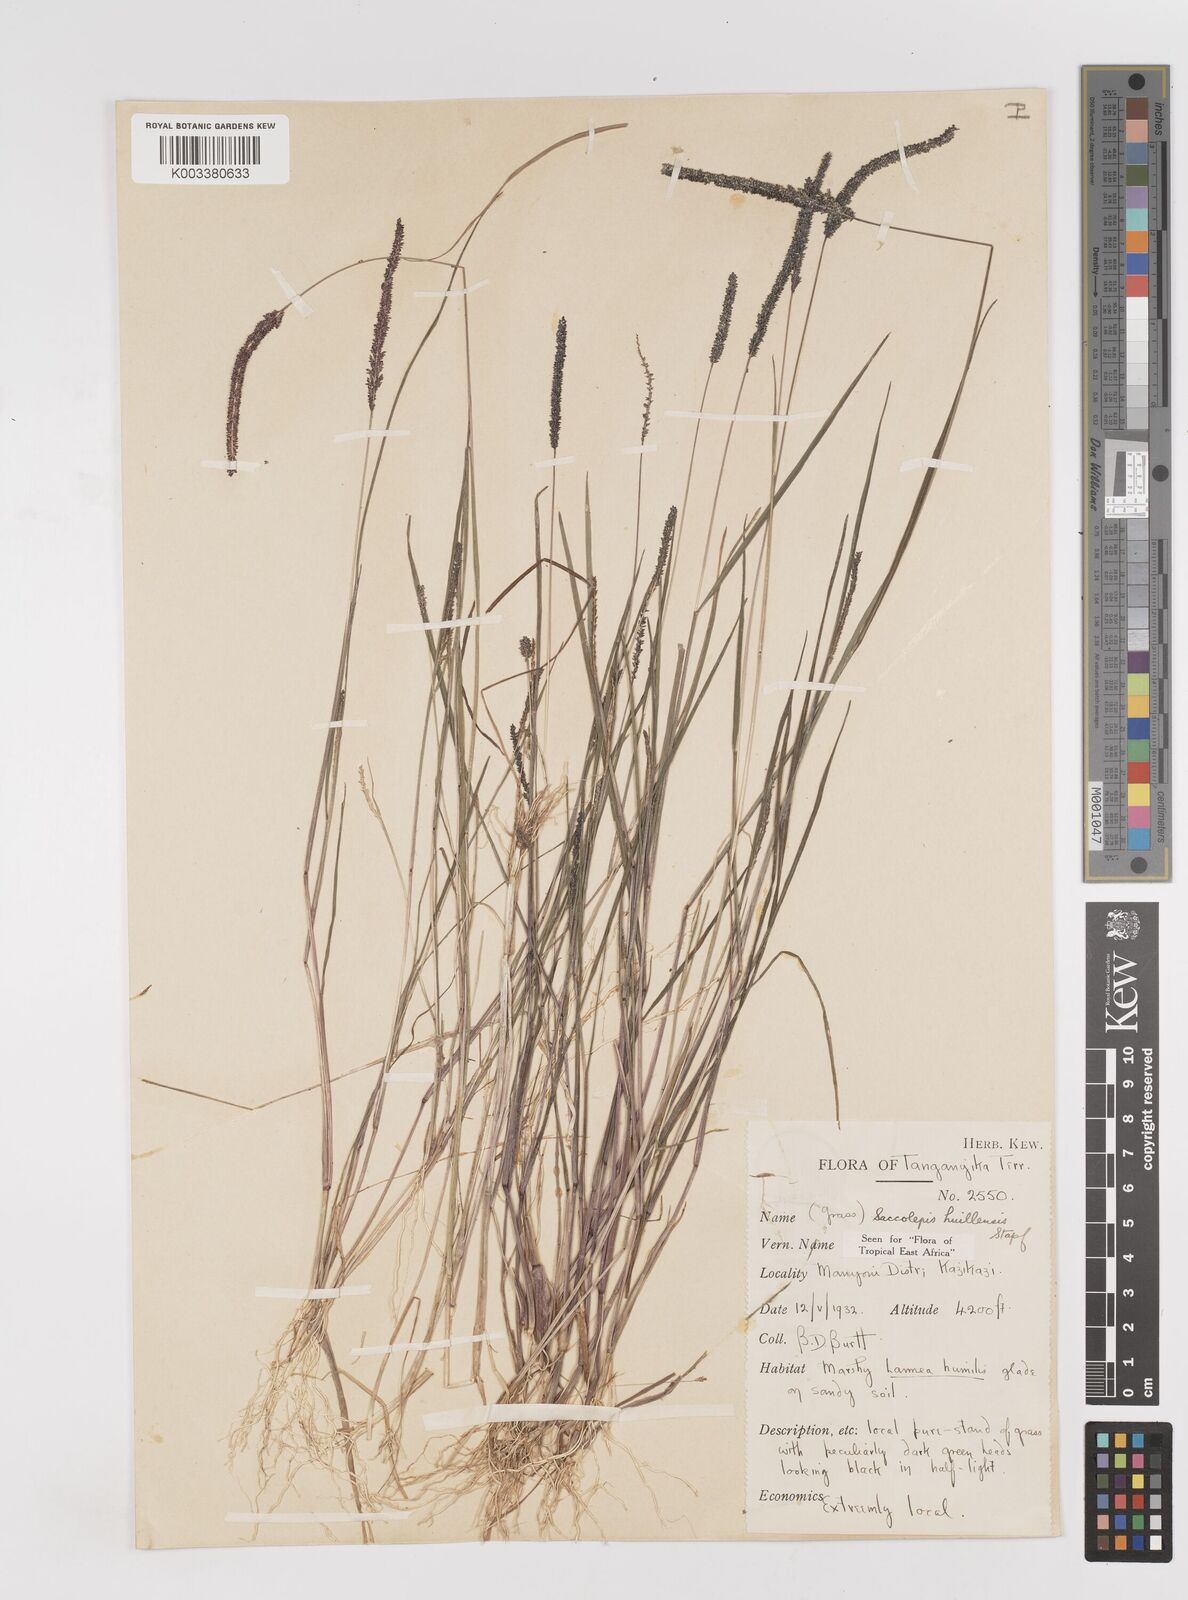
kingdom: Plantae
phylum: Tracheophyta
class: Liliopsida
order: Poales
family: Poaceae
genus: Sacciolepis
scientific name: Sacciolepis myosuroides
